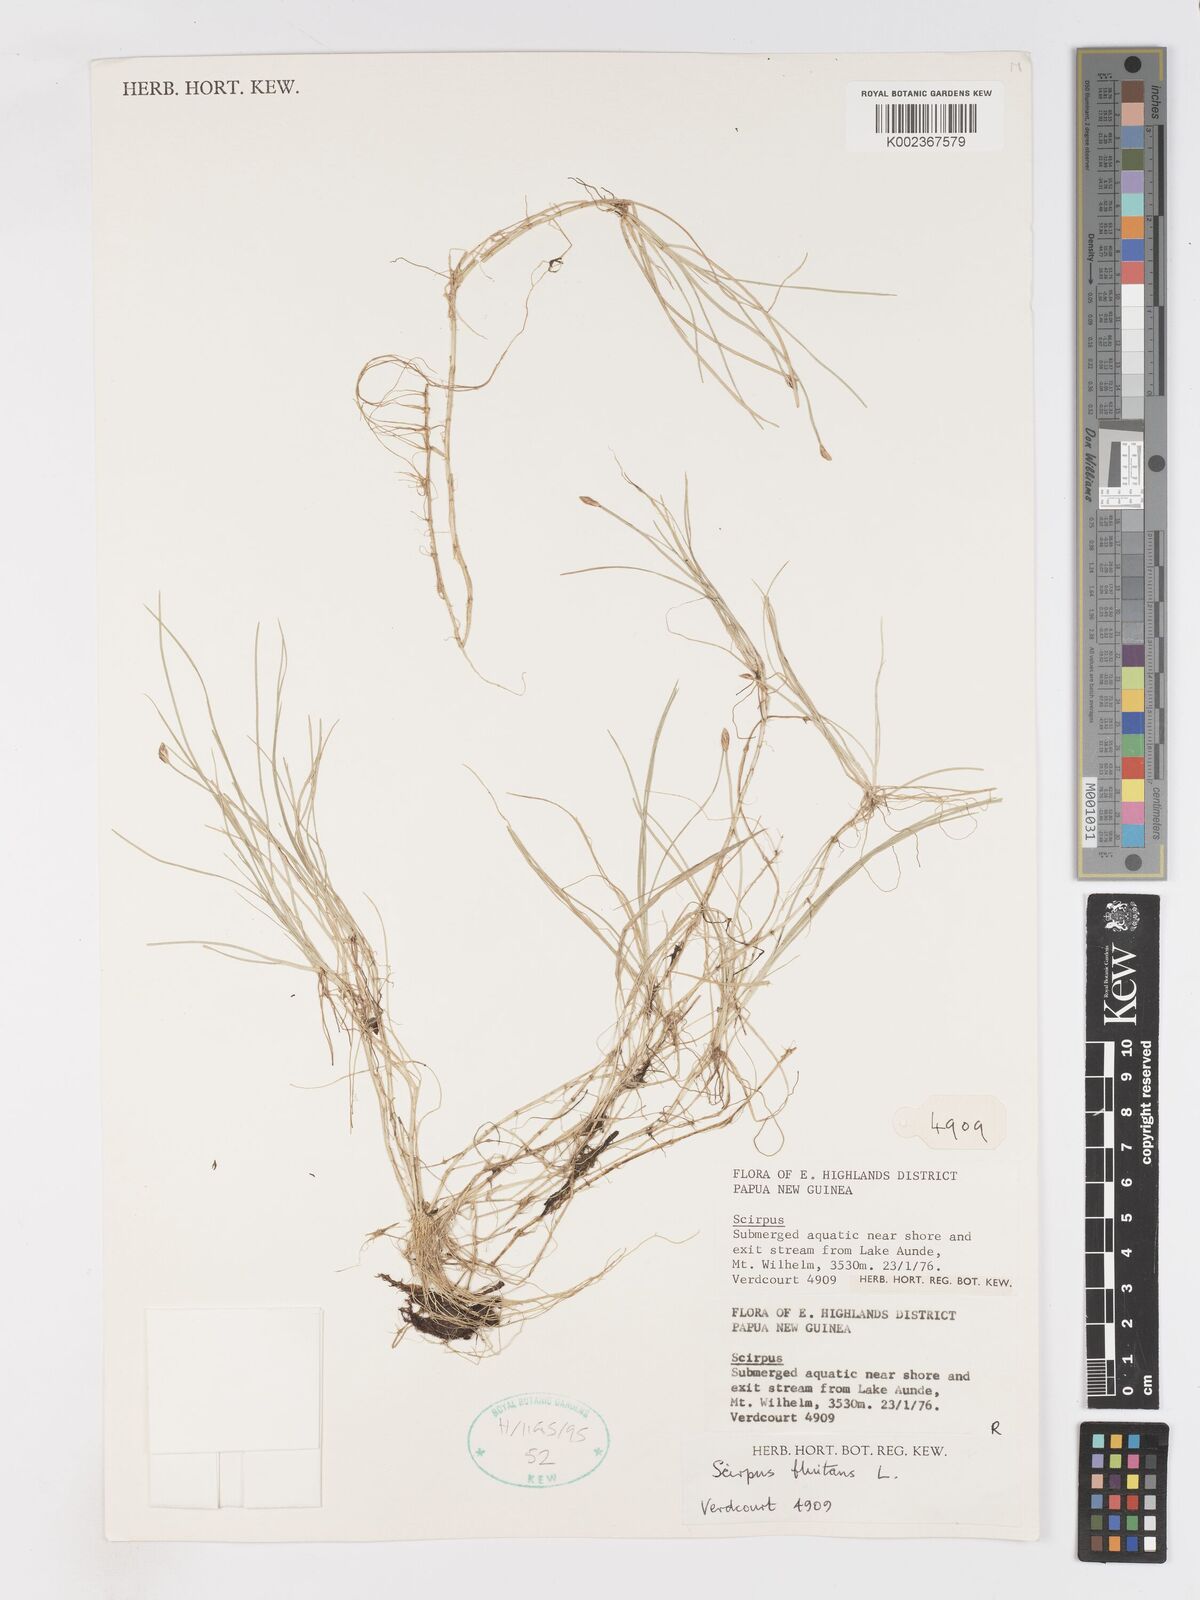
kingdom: Plantae
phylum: Tracheophyta
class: Liliopsida
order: Poales
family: Cyperaceae
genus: Isolepis
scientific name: Isolepis fluitans
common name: Floating club-rush
